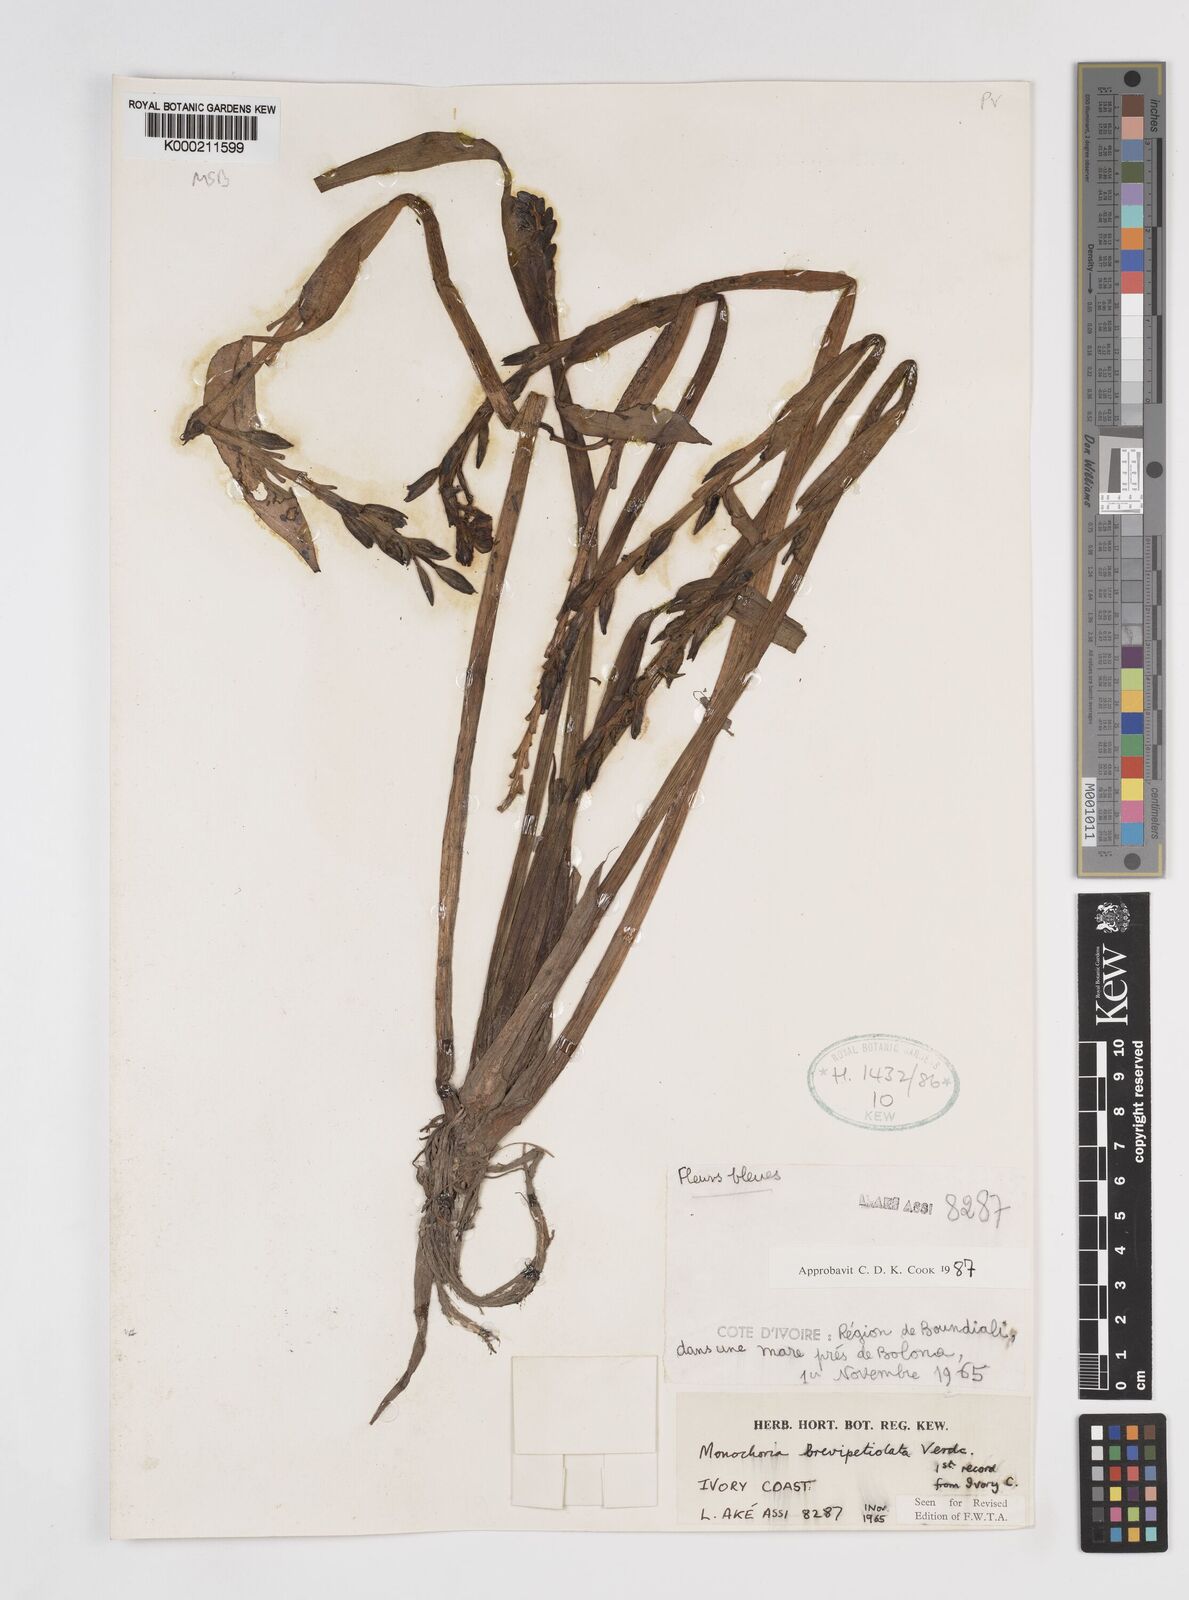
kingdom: Plantae
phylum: Tracheophyta
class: Liliopsida
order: Commelinales
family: Pontederiaceae
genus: Pontederia
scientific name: Pontederia brevipetiolata
